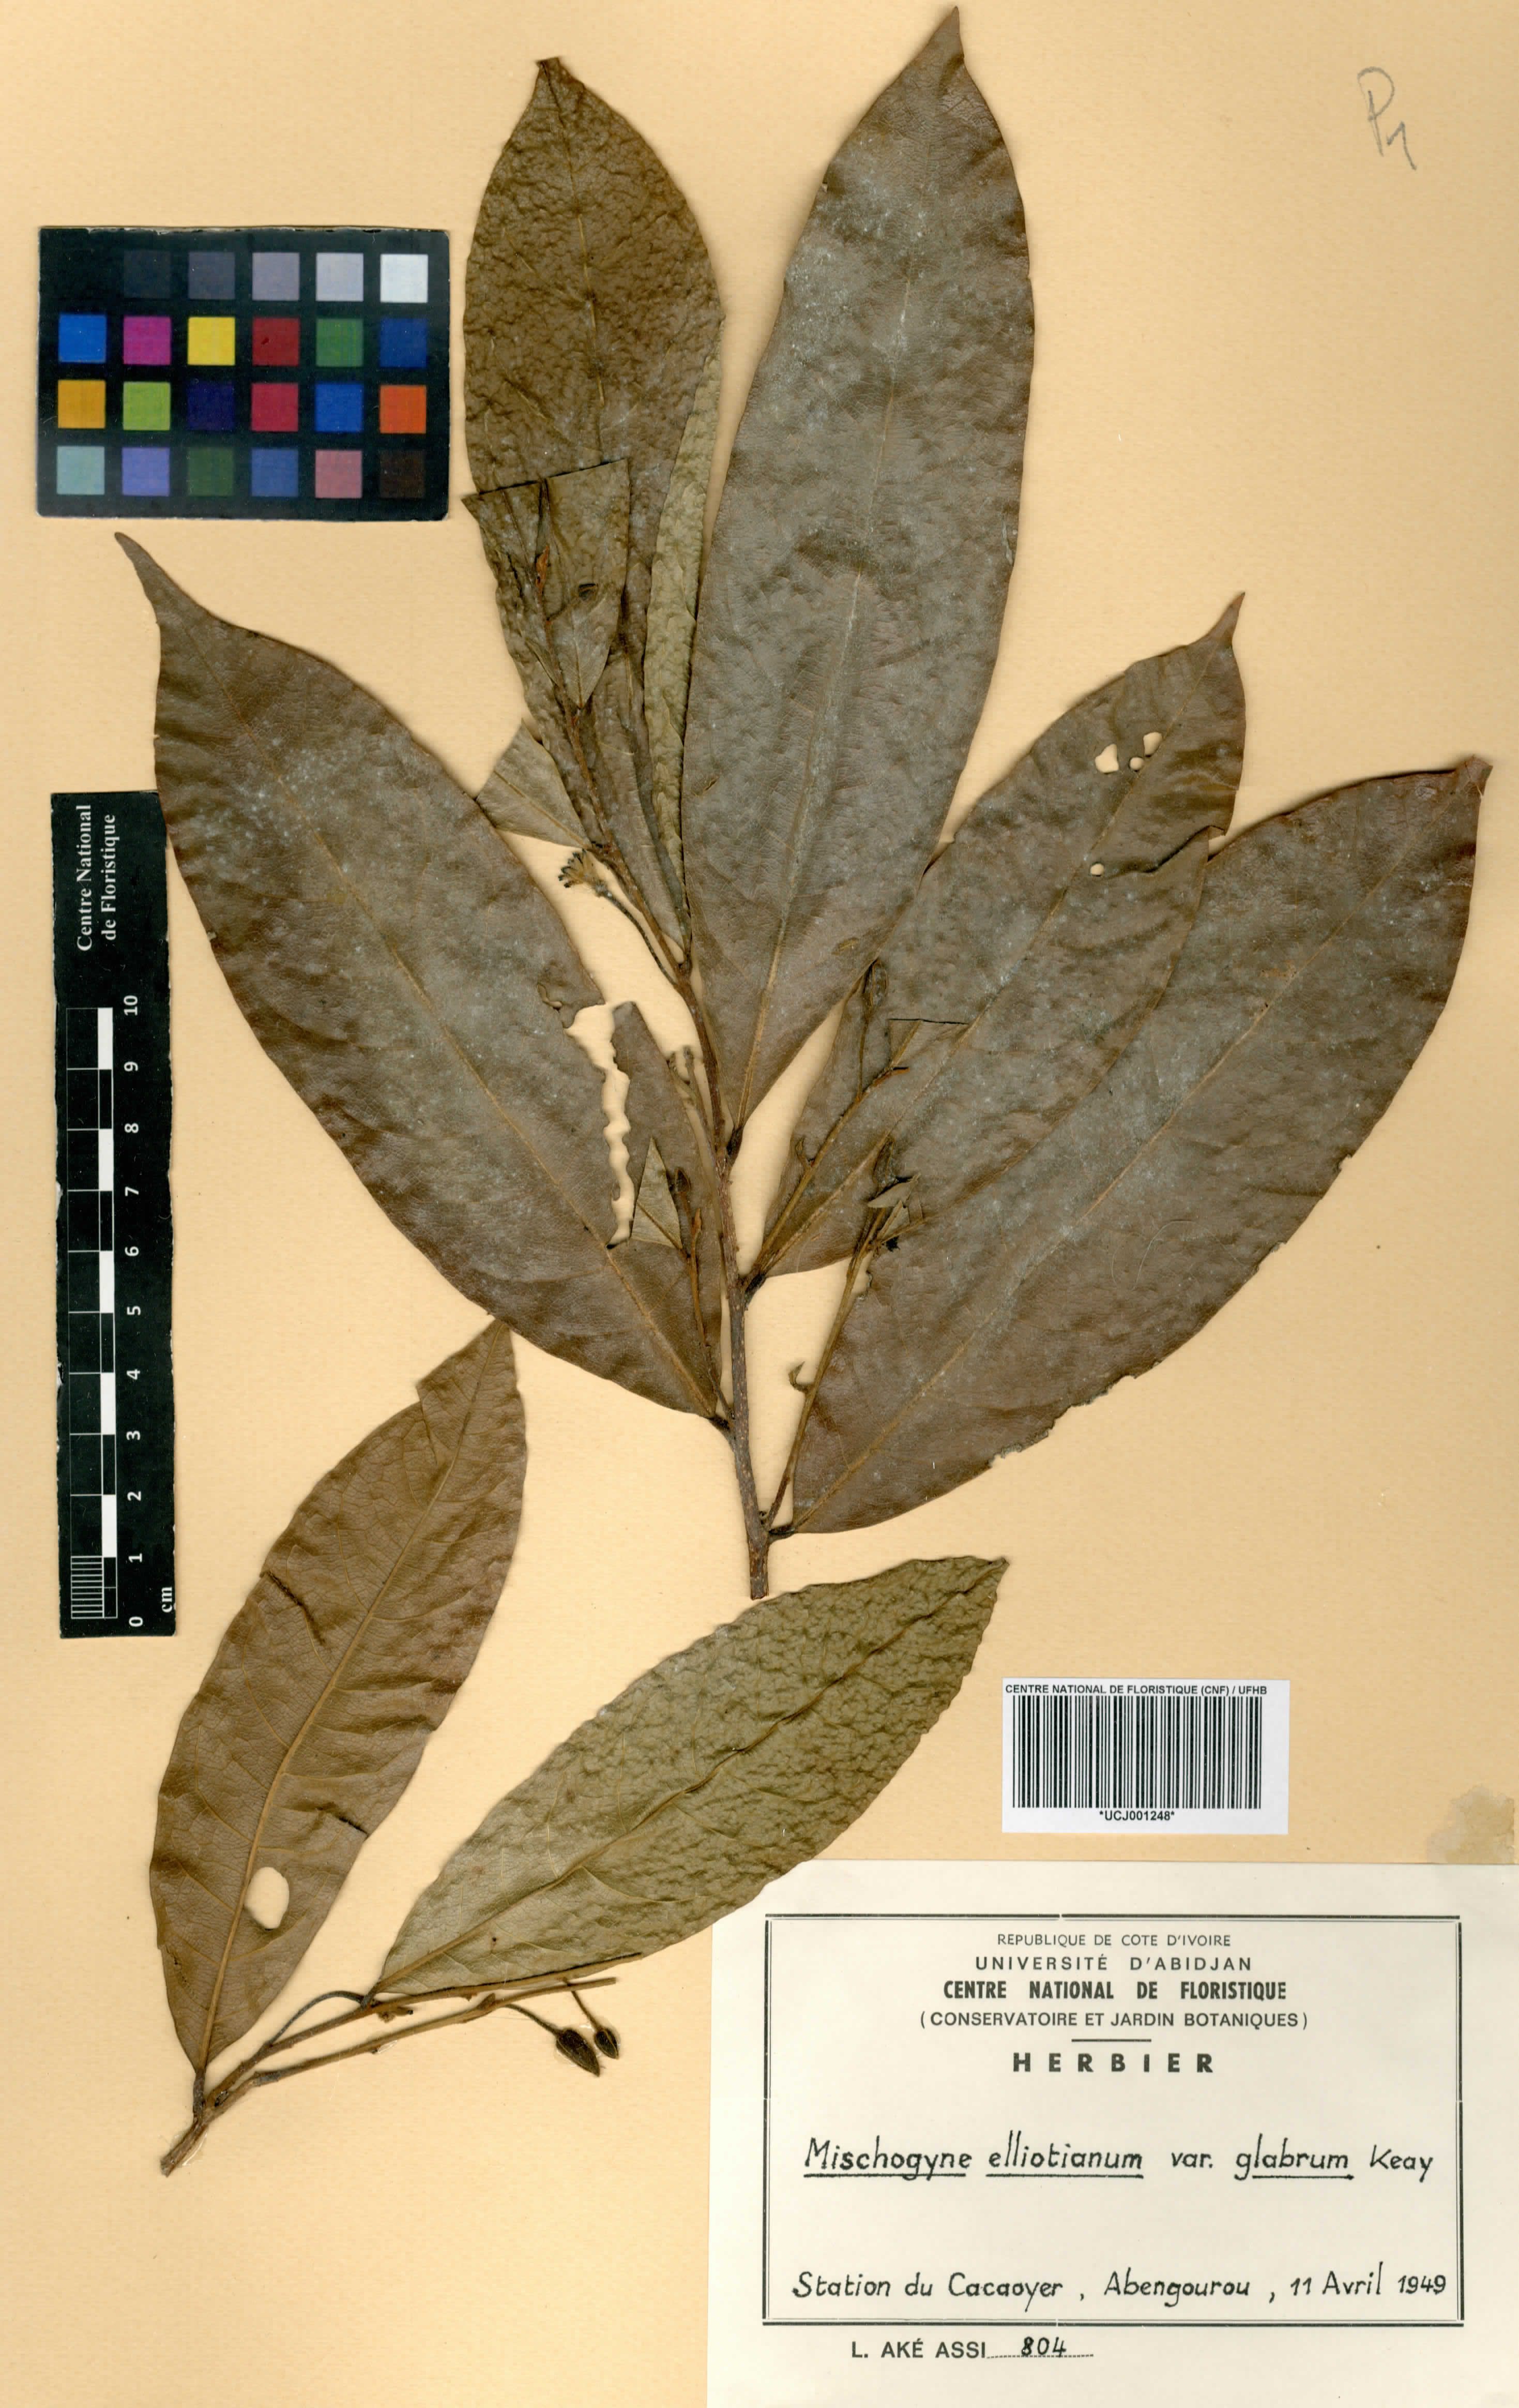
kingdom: Plantae
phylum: Tracheophyta
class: Magnoliopsida
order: Magnoliales
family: Annonaceae
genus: Mischogyne
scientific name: Mischogyne elliotianum
